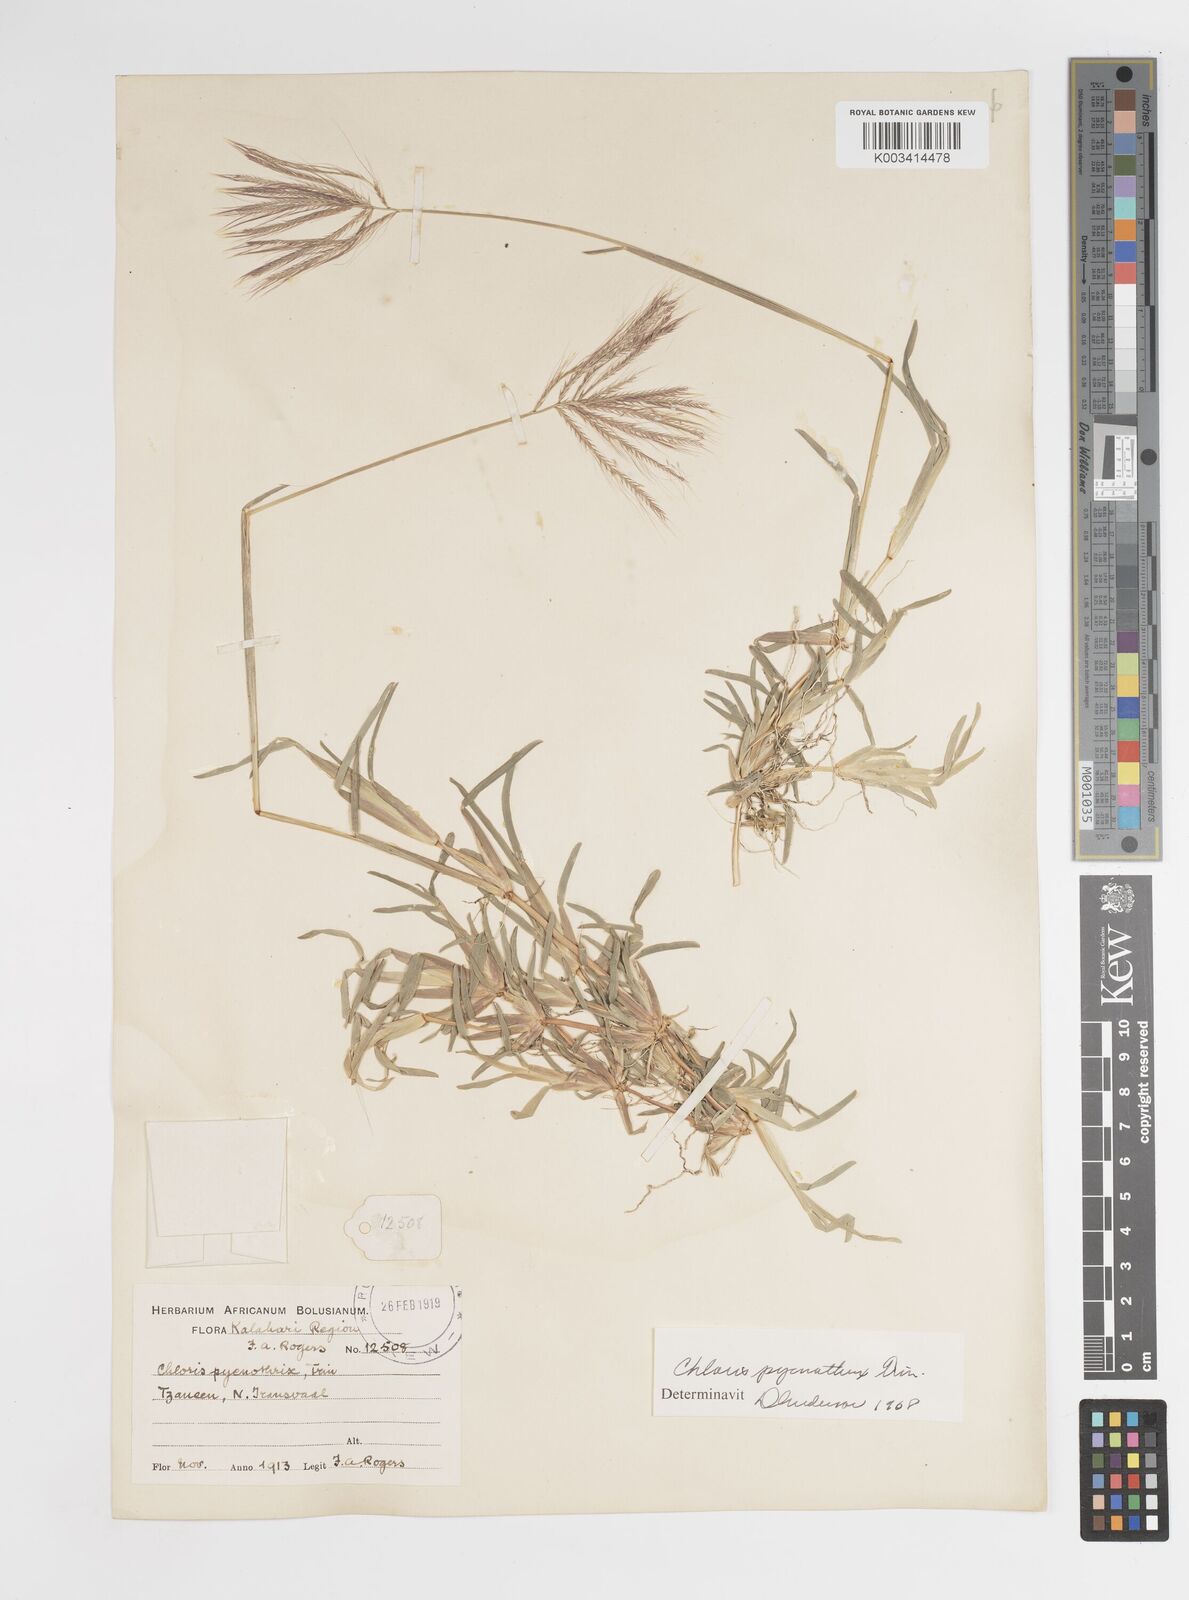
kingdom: Plantae
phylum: Tracheophyta
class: Liliopsida
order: Poales
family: Poaceae
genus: Chloris
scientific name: Chloris pycnothrix
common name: Spiderweb chloris
